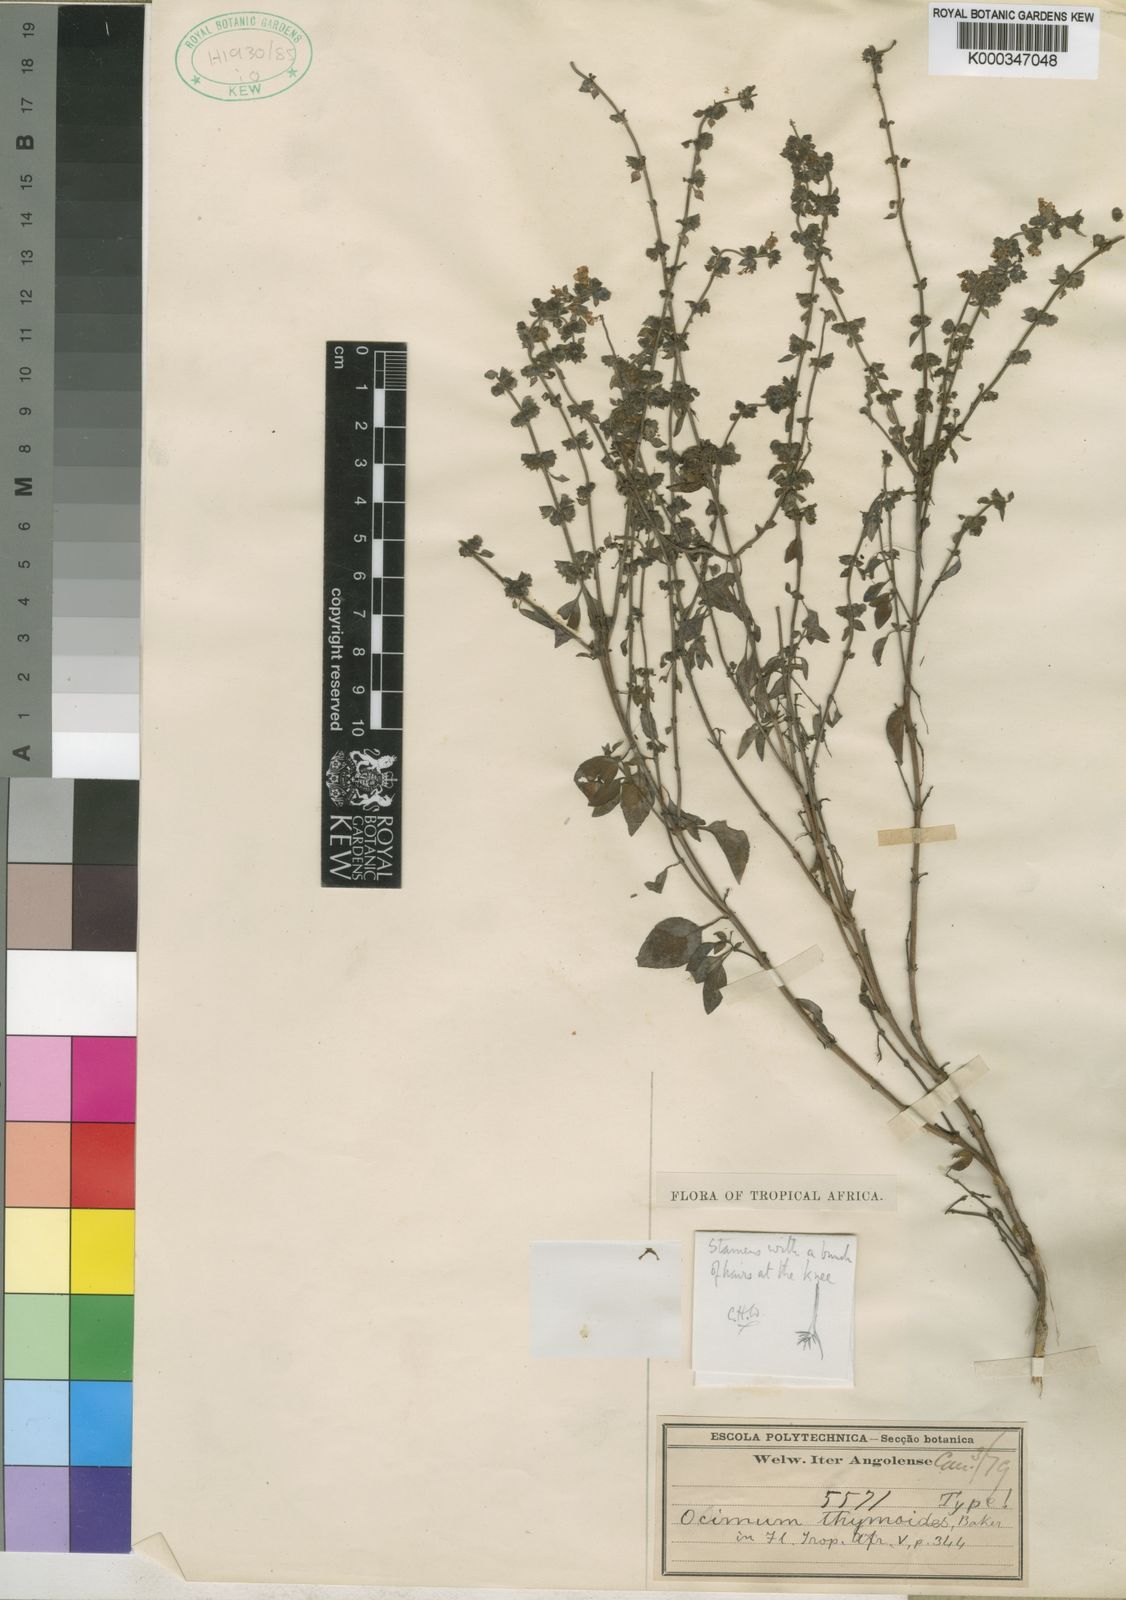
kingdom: Plantae
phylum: Tracheophyta
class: Magnoliopsida
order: Lamiales
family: Lamiaceae
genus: Ocimum
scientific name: Ocimum americanum
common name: American basil
